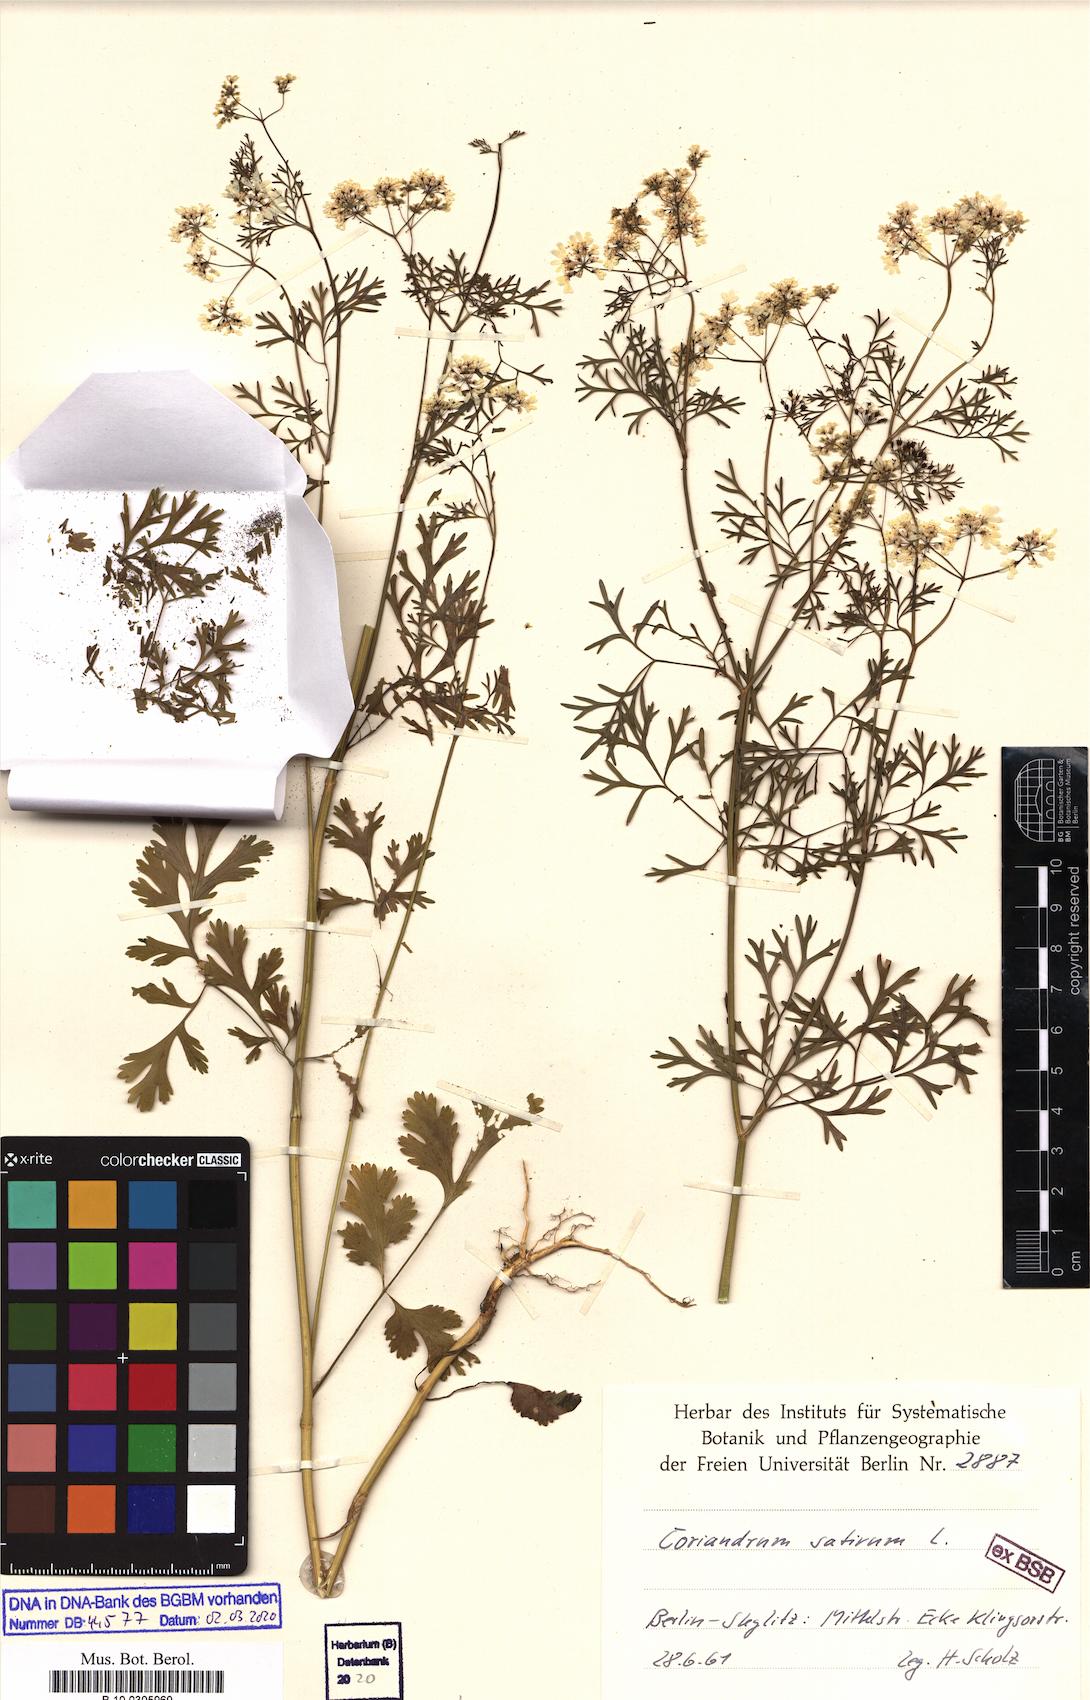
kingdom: Plantae
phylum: Tracheophyta
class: Magnoliopsida
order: Apiales
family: Apiaceae
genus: Coriandrum
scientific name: Coriandrum sativum
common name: Coriander
